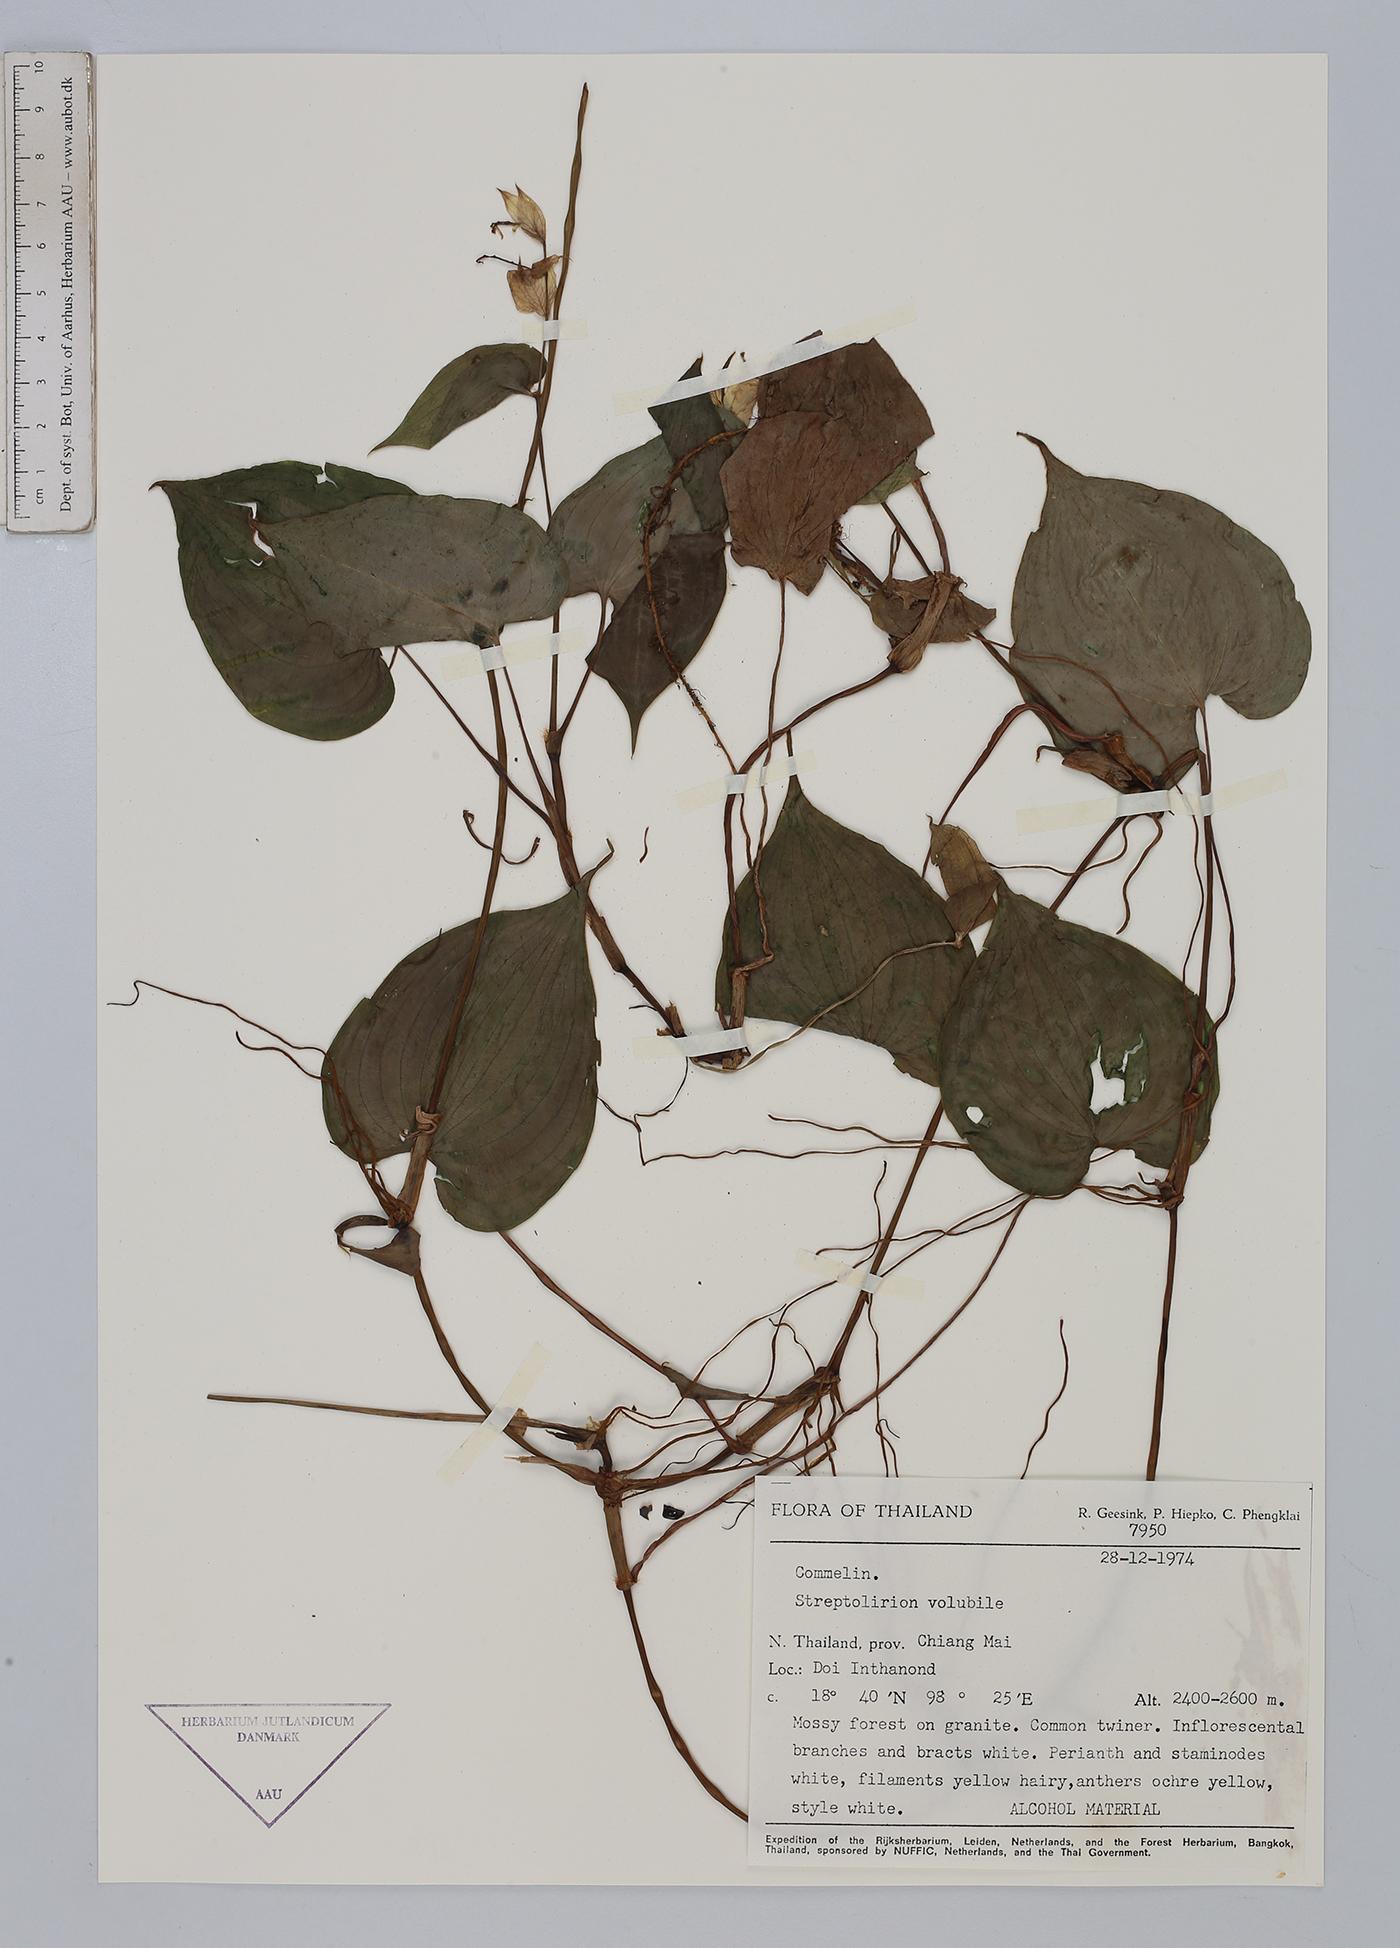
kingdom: Plantae
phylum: Tracheophyta
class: Liliopsida
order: Commelinales
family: Commelinaceae
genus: Streptolirion
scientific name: Streptolirion volubile
